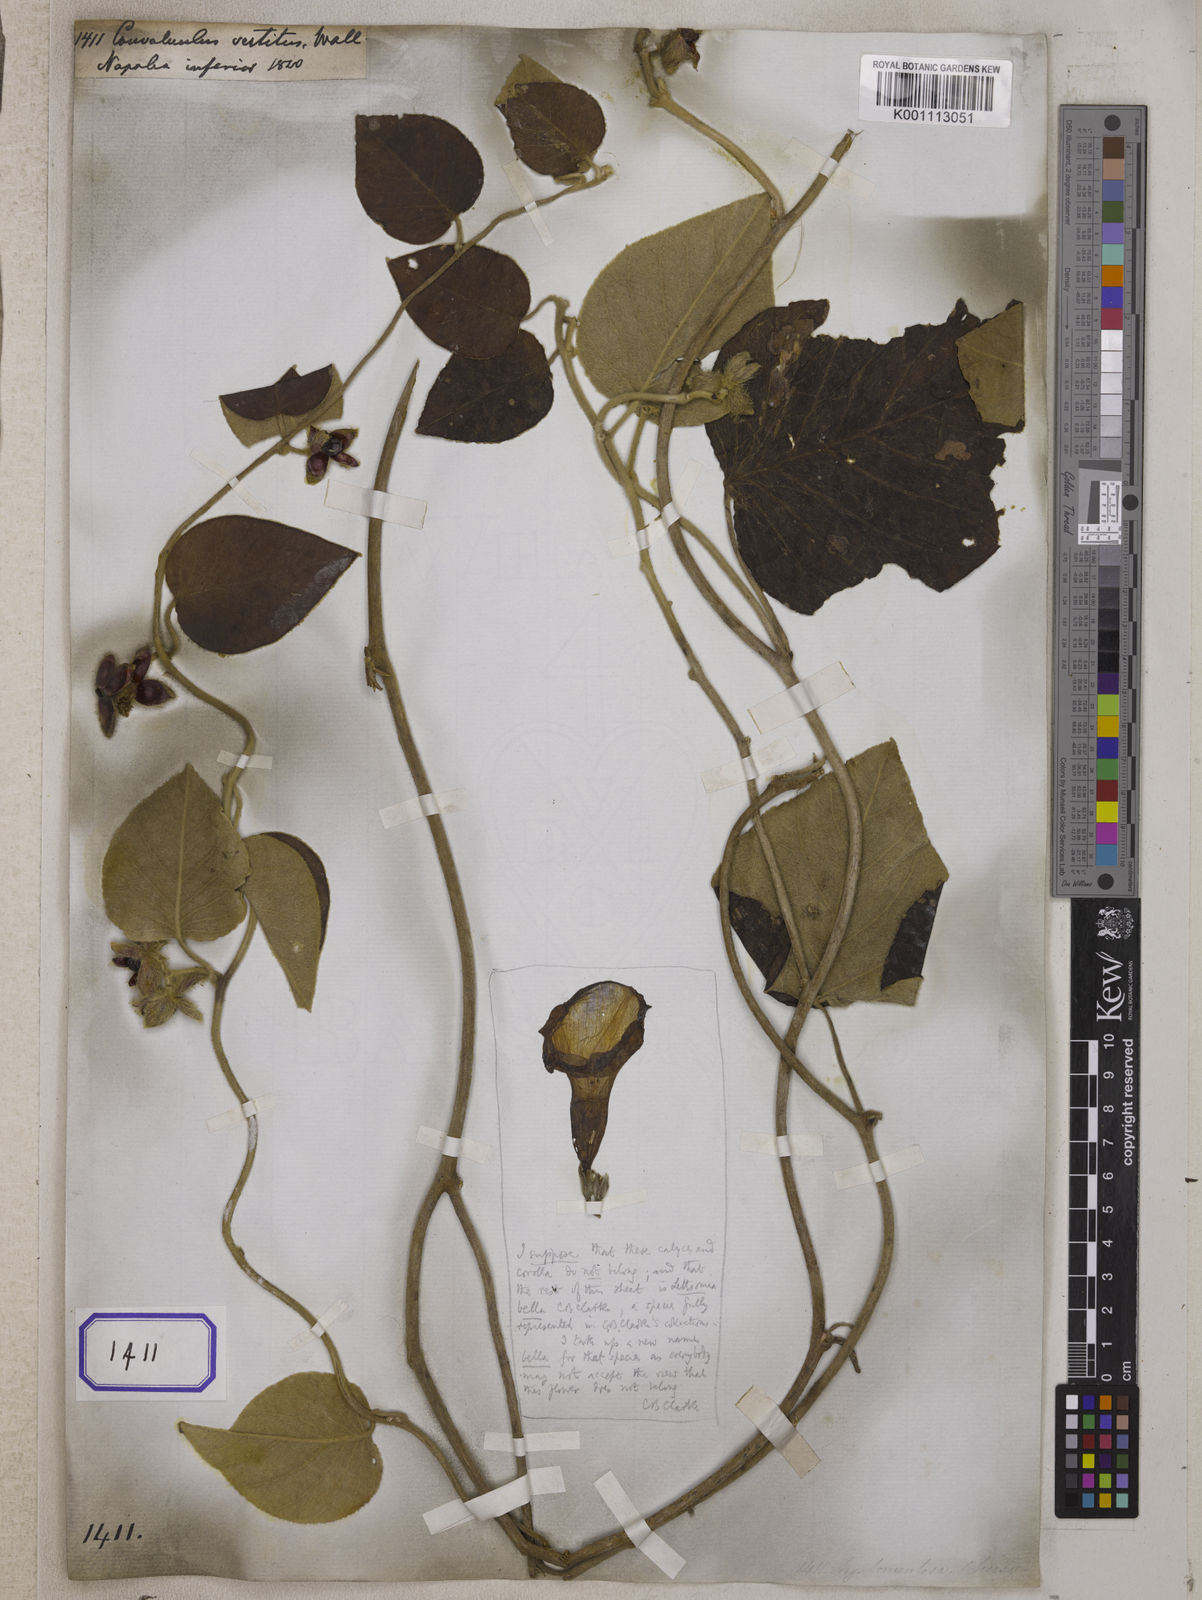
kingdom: Plantae
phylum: Tracheophyta
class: Magnoliopsida
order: Solanales
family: Convolvulaceae
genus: Convolvulus
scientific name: Convolvulus
